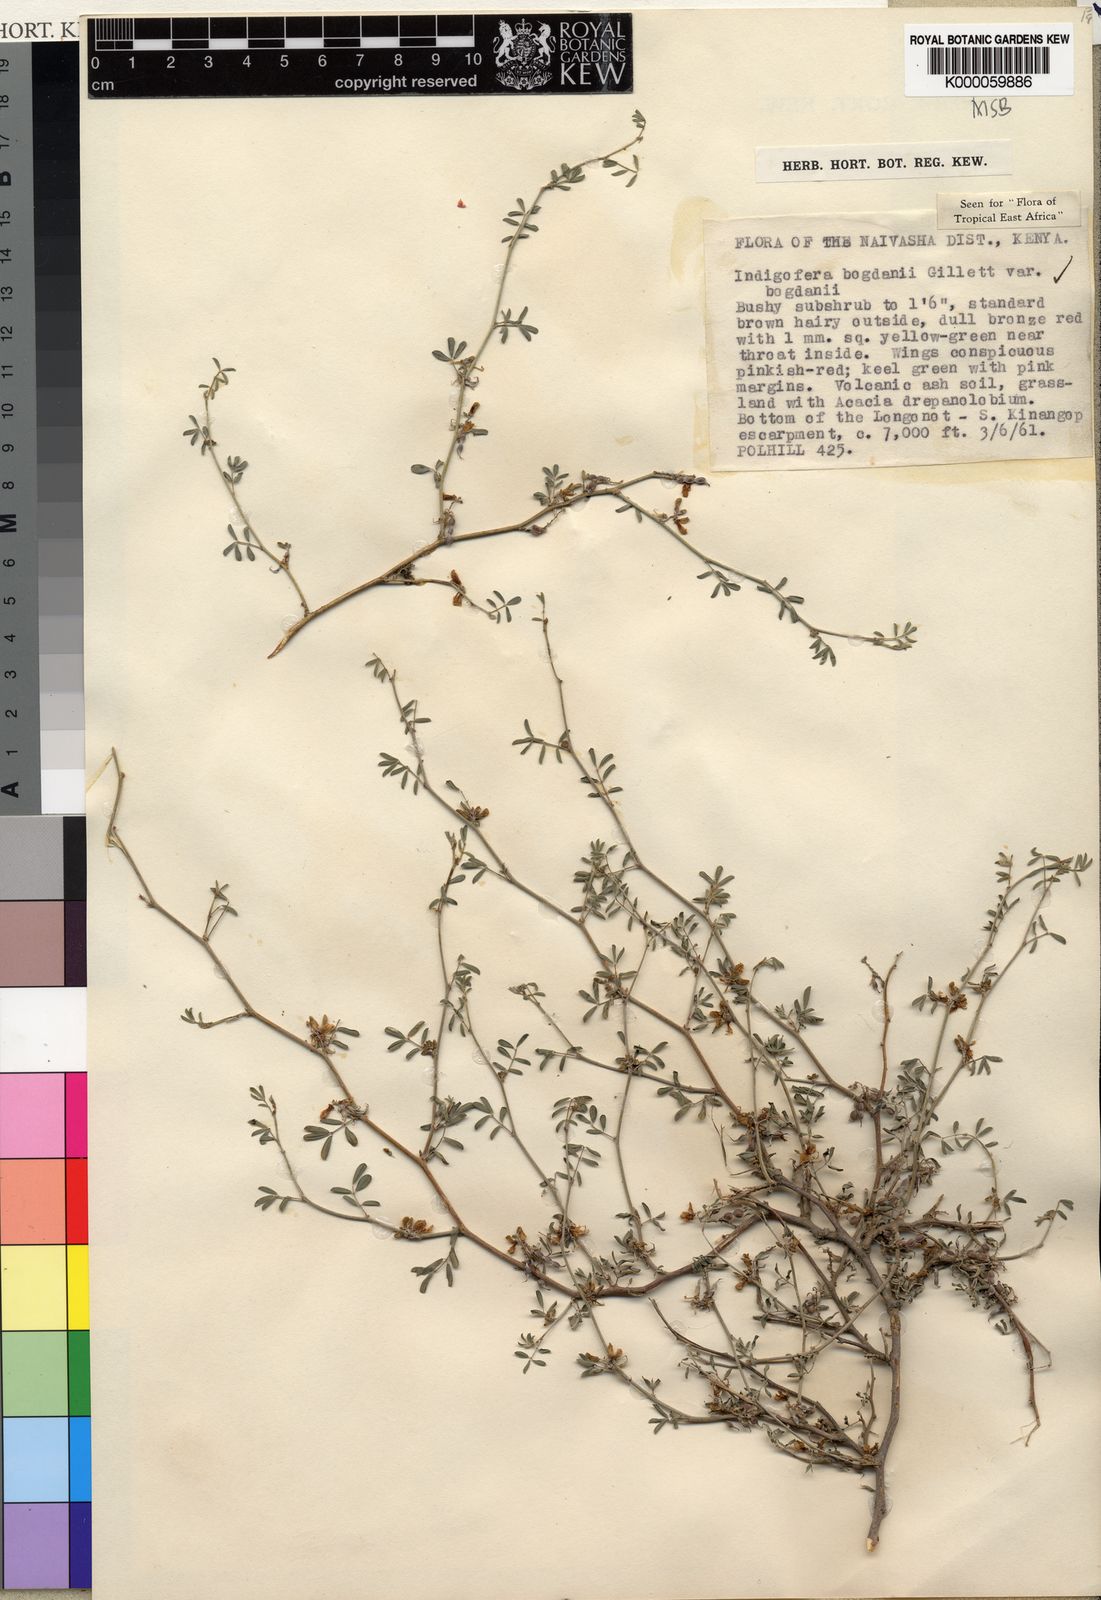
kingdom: Plantae
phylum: Tracheophyta
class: Magnoliopsida
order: Fabales
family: Fabaceae
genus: Indigofera
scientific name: Indigofera bogdanii
